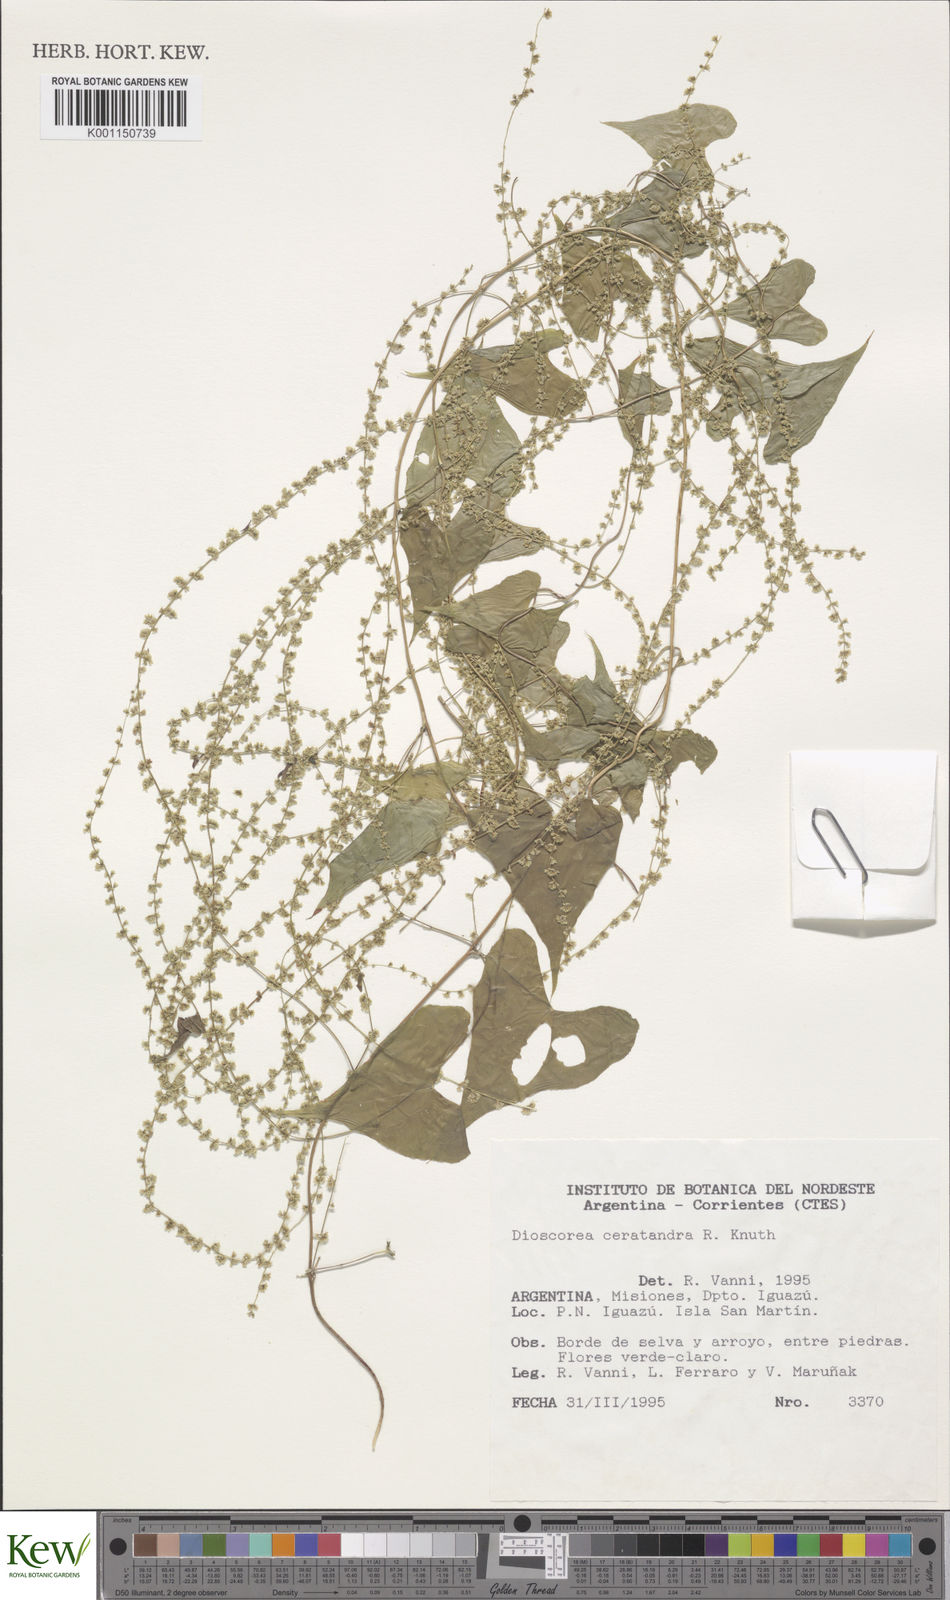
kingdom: Plantae
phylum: Tracheophyta
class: Liliopsida
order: Dioscoreales
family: Dioscoreaceae
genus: Dioscorea
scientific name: Dioscorea
